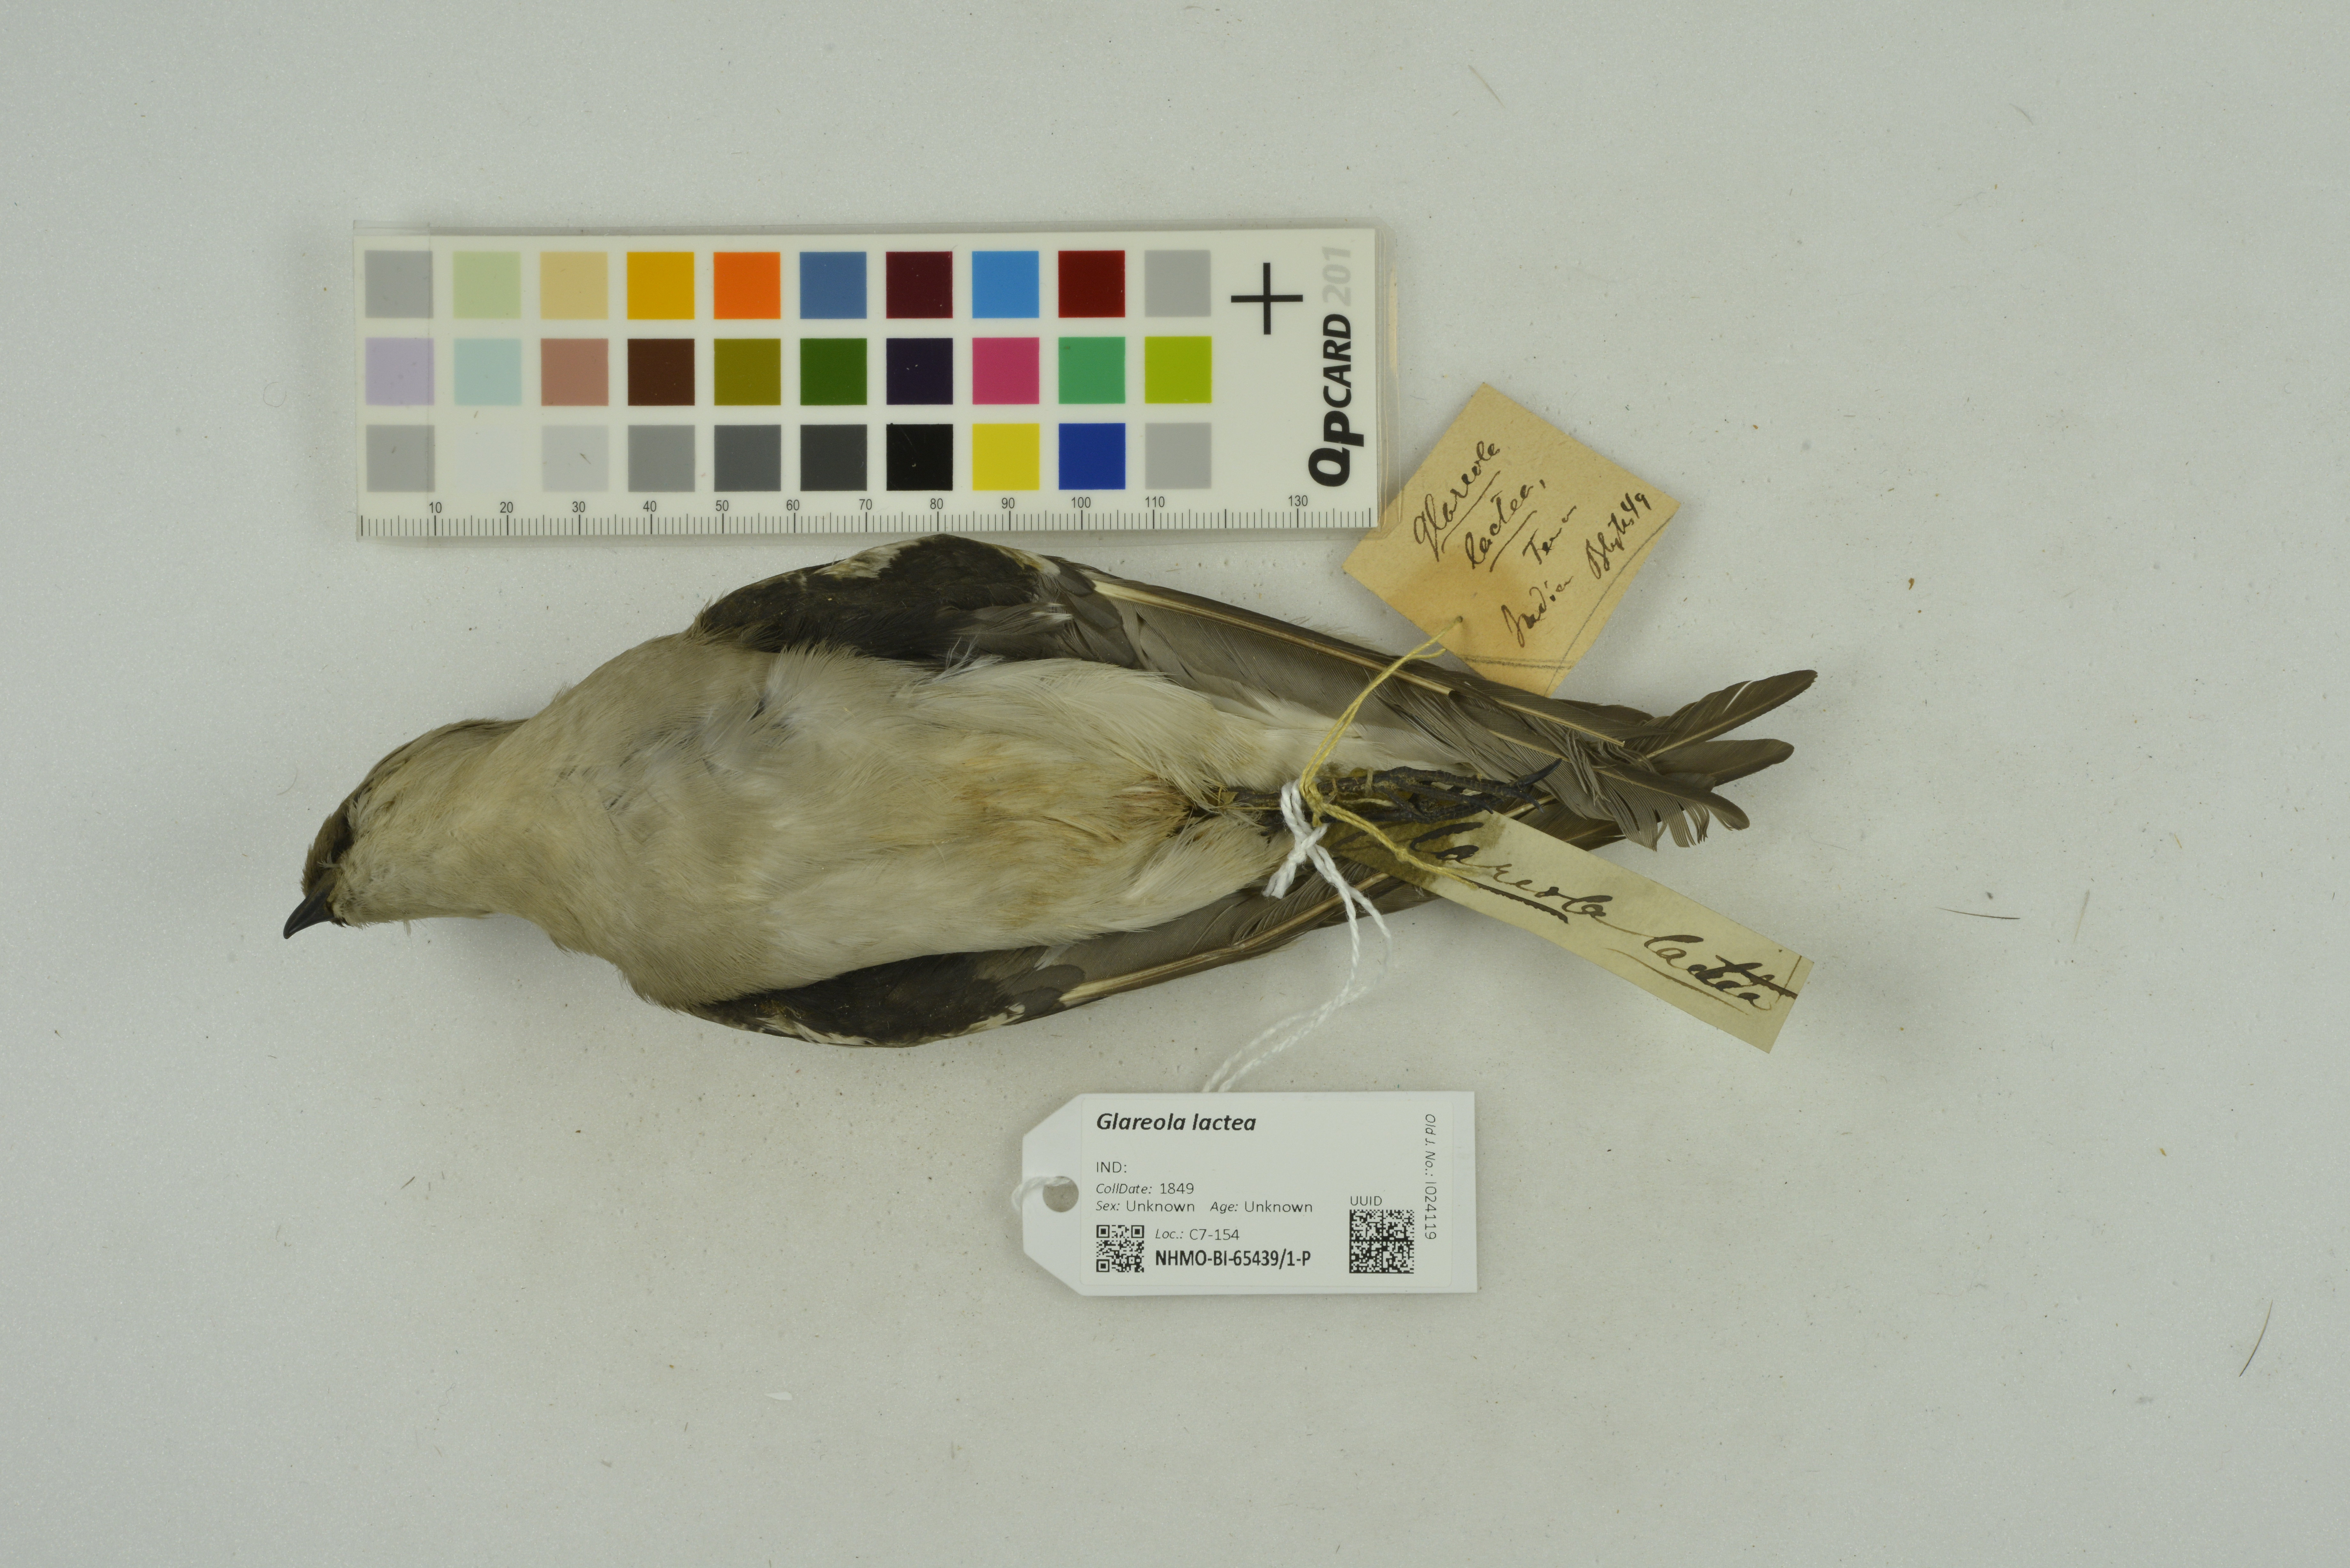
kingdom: Animalia
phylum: Chordata
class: Aves
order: Charadriiformes
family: Glareolidae
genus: Glareola
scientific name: Glareola lactea
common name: Small pratincole
